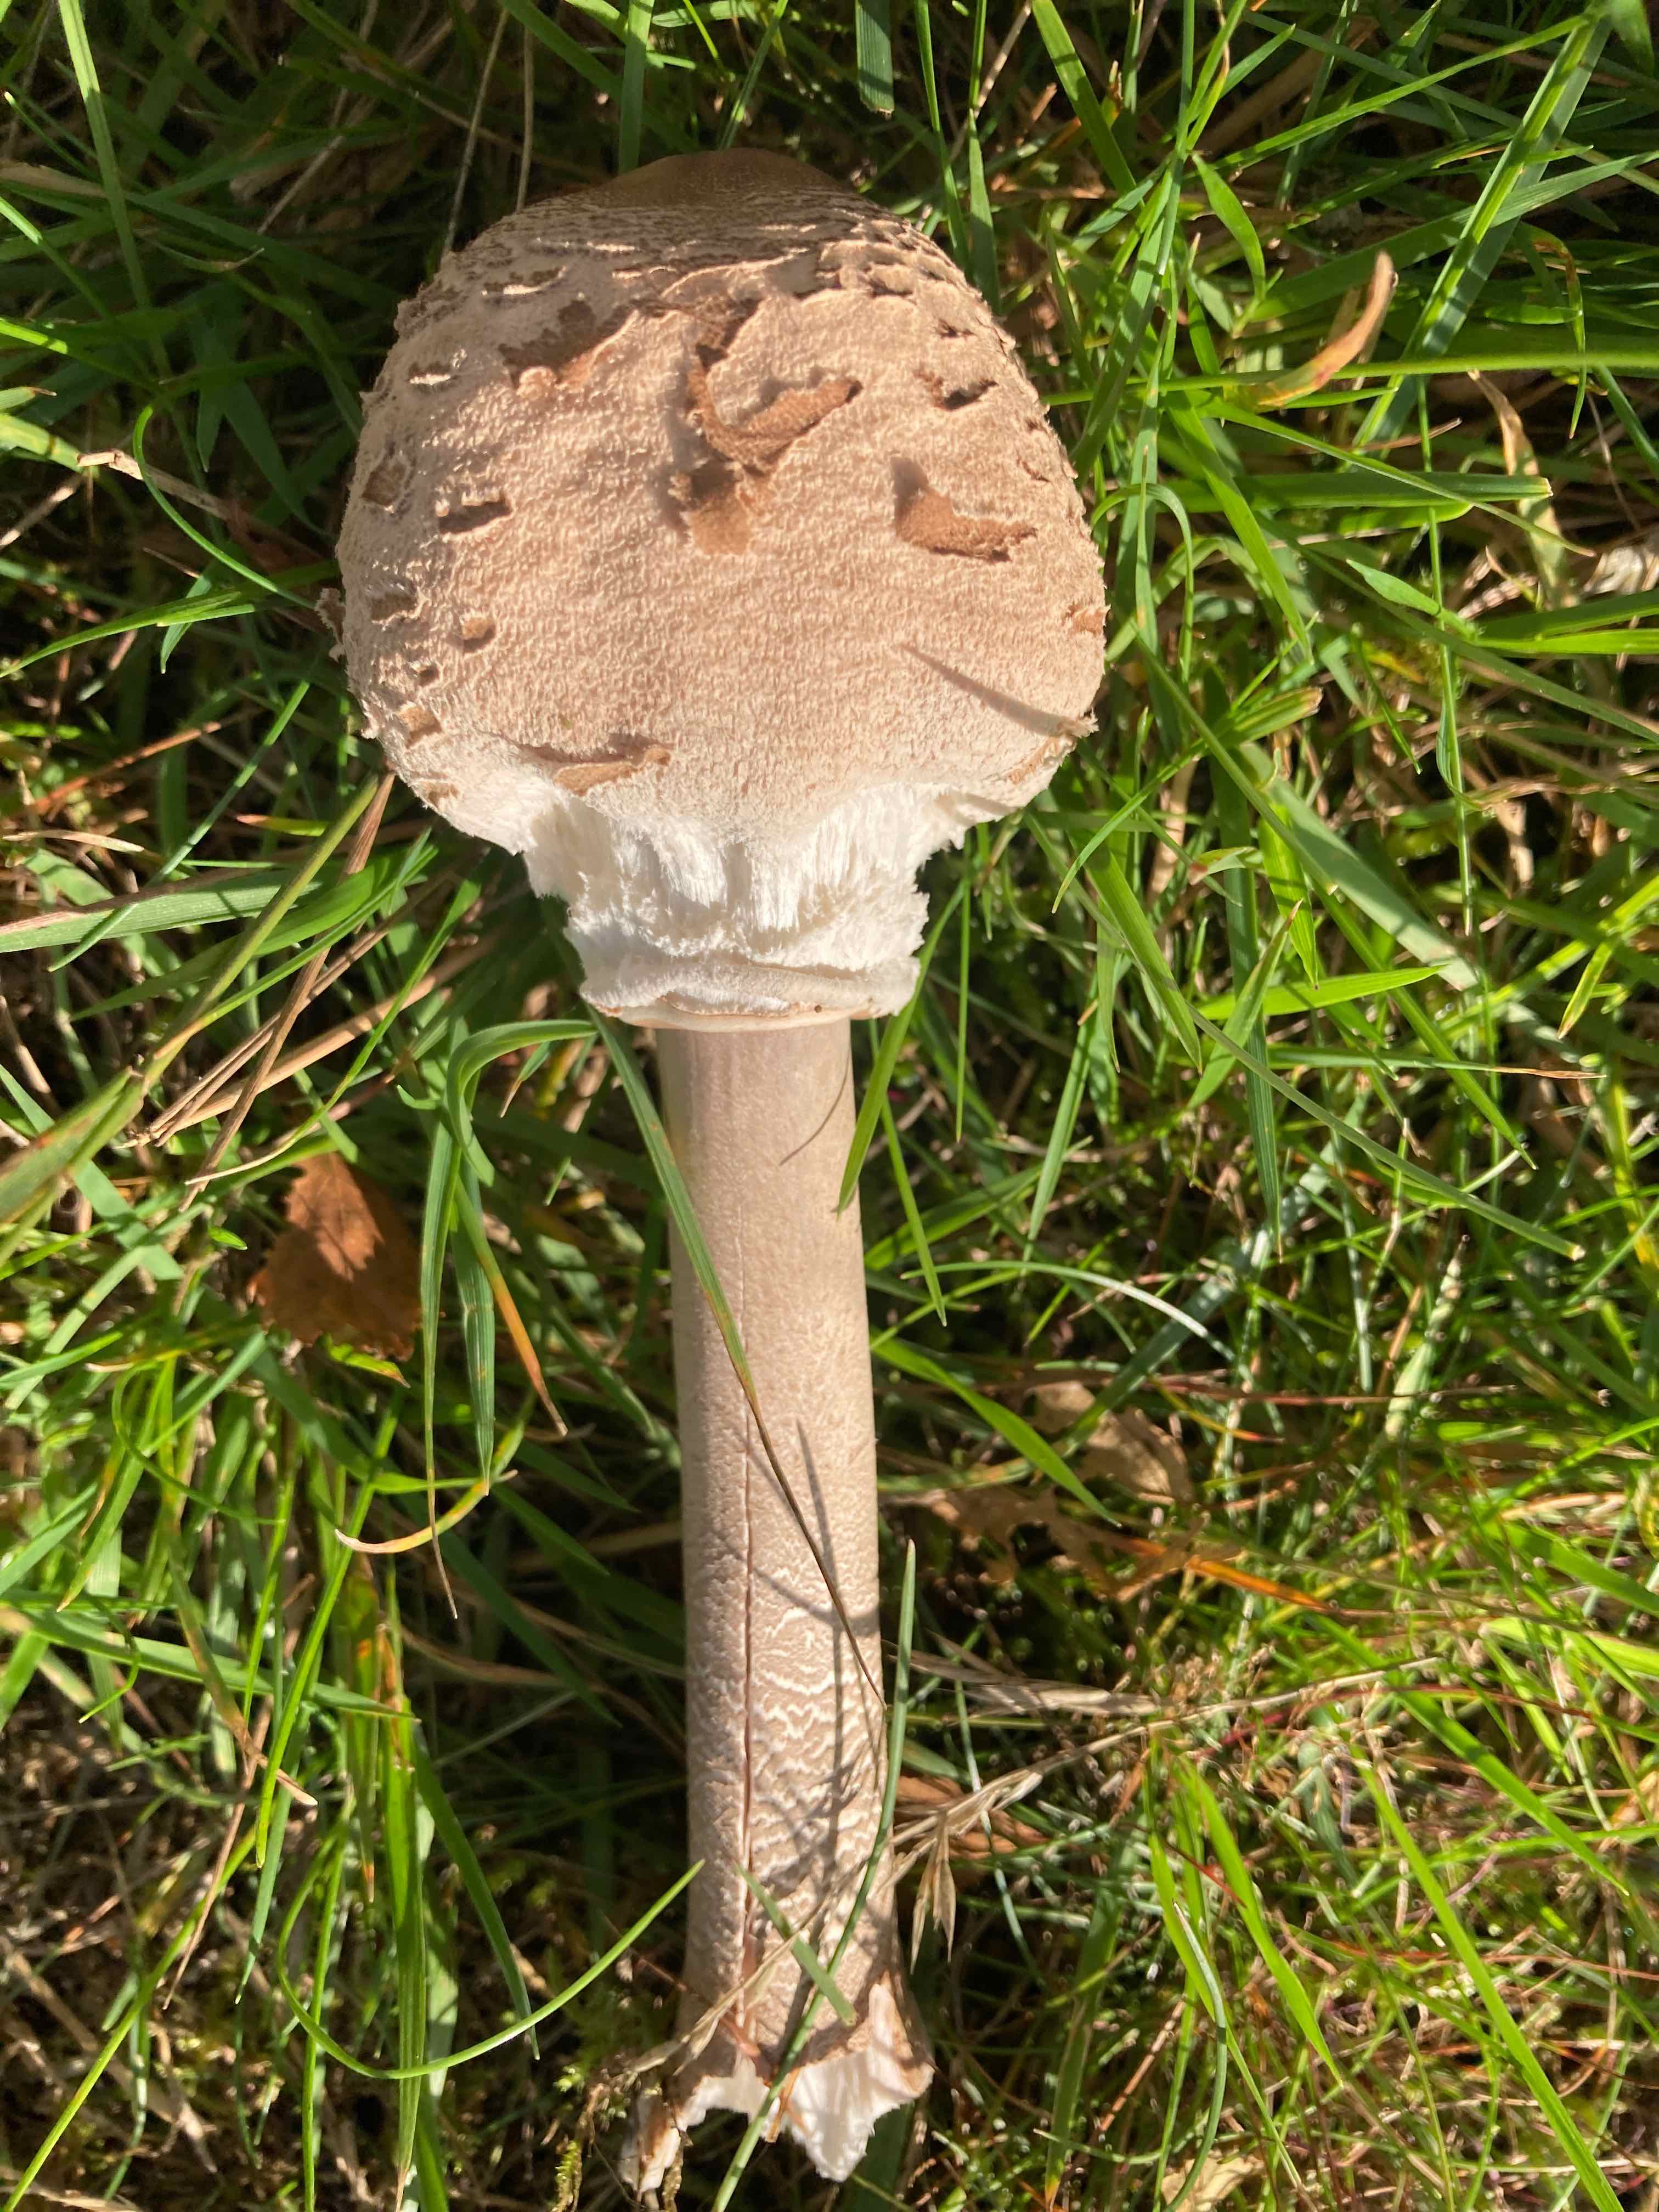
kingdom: Fungi
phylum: Basidiomycota
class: Agaricomycetes
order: Agaricales
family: Agaricaceae
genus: Macrolepiota
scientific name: Macrolepiota procera
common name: stor kæmpeparasolhat
